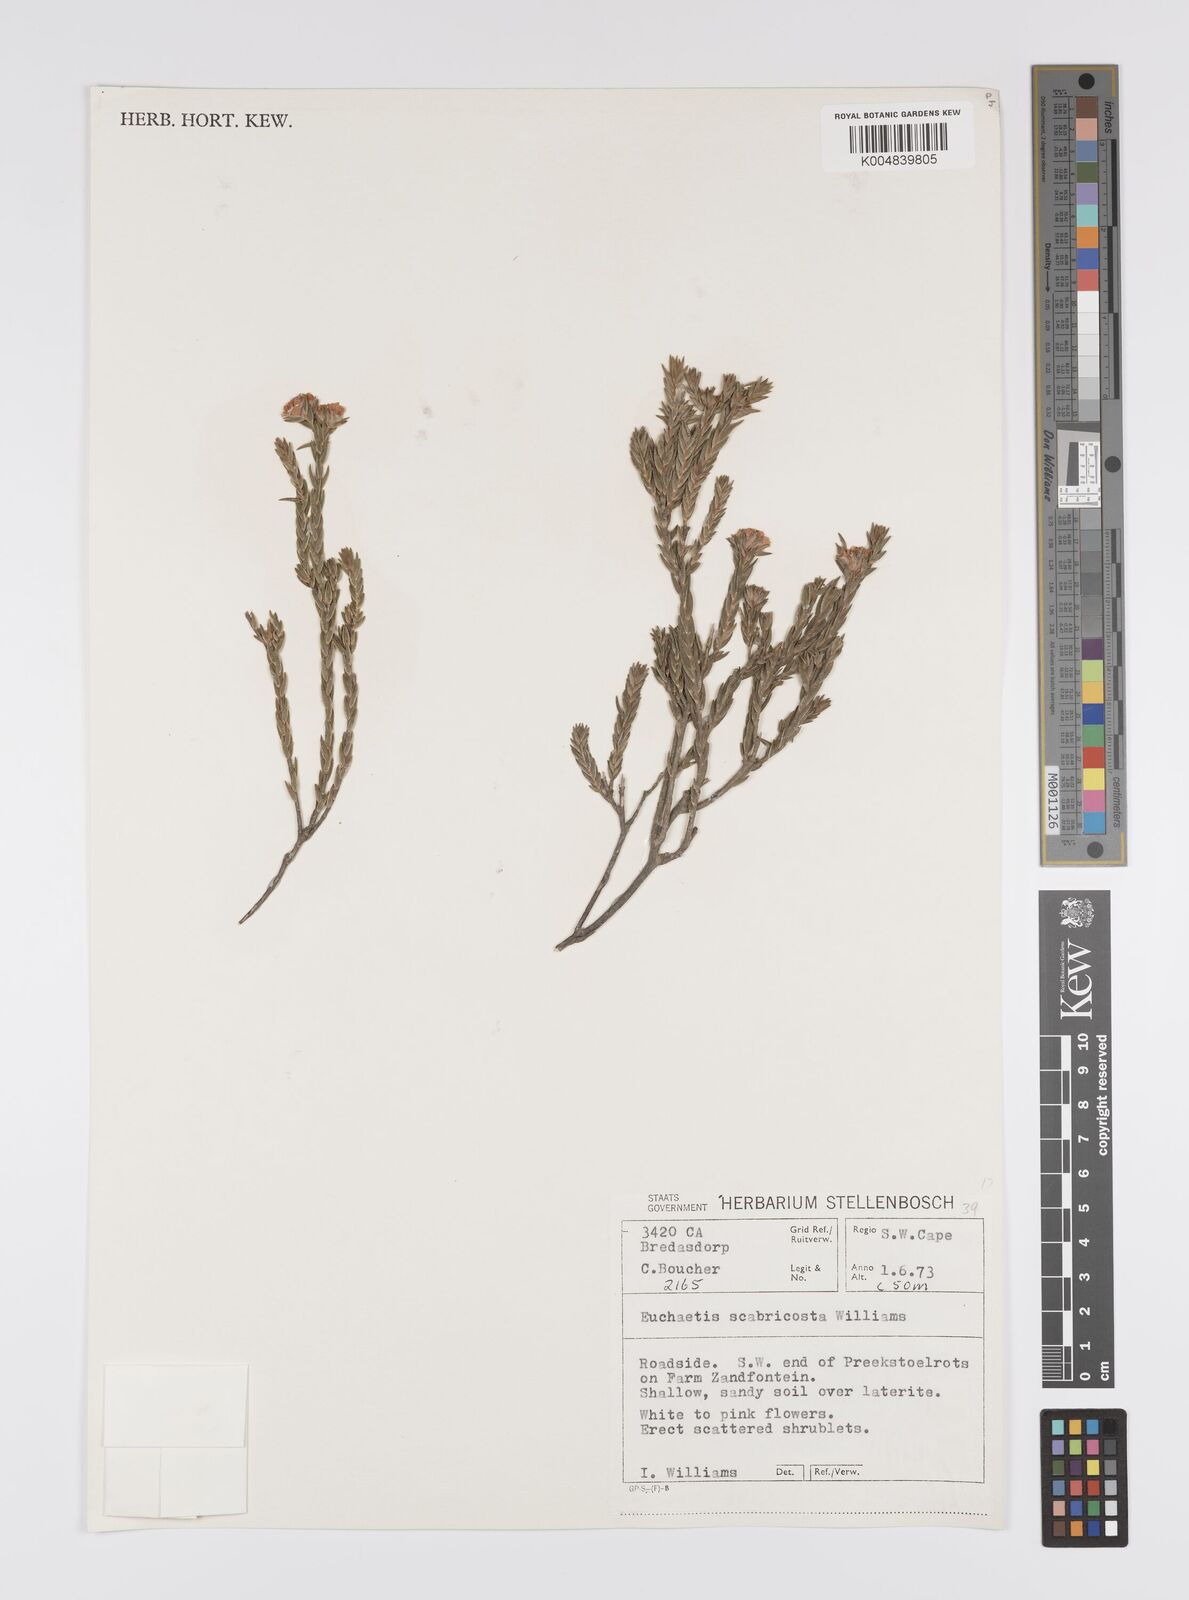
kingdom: Plantae
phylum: Tracheophyta
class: Magnoliopsida
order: Sapindales
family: Rutaceae
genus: Euchaetis
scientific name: Euchaetis scabricosta
